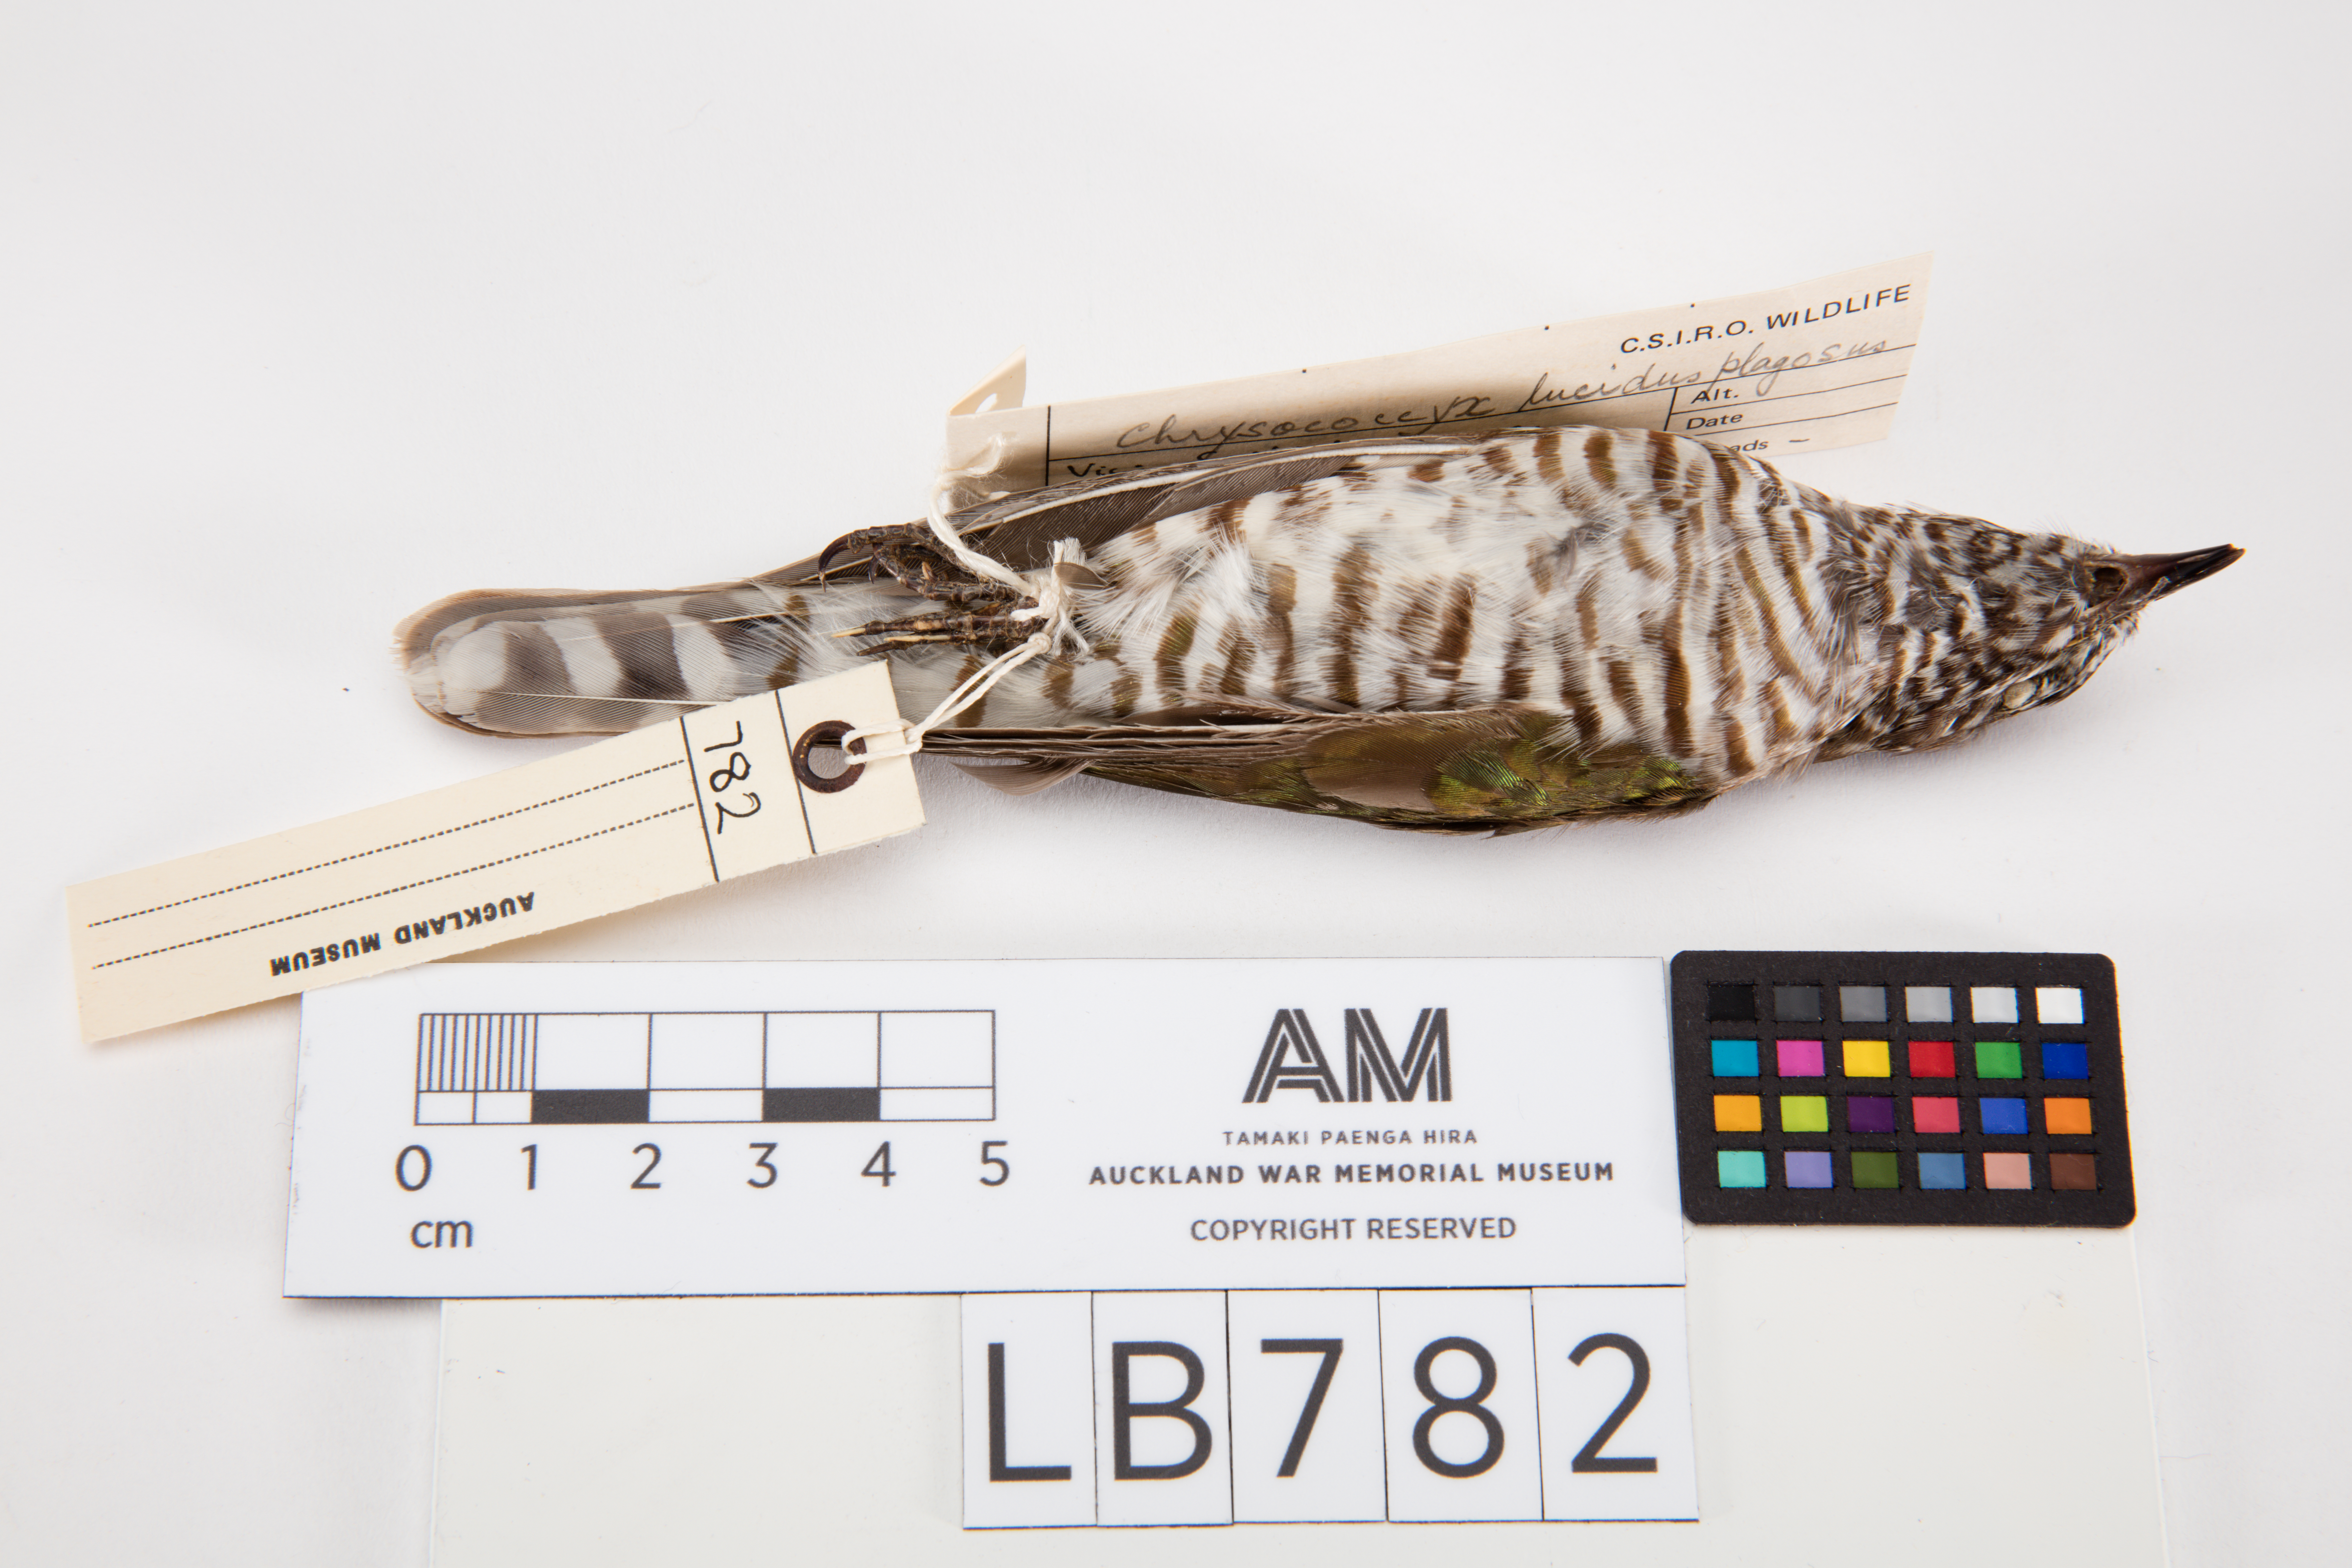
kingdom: Animalia
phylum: Chordata
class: Aves
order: Cuculiformes
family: Cuculidae
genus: Chrysococcyx
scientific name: Chrysococcyx lucidus
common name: Shining bronze cuckoo
